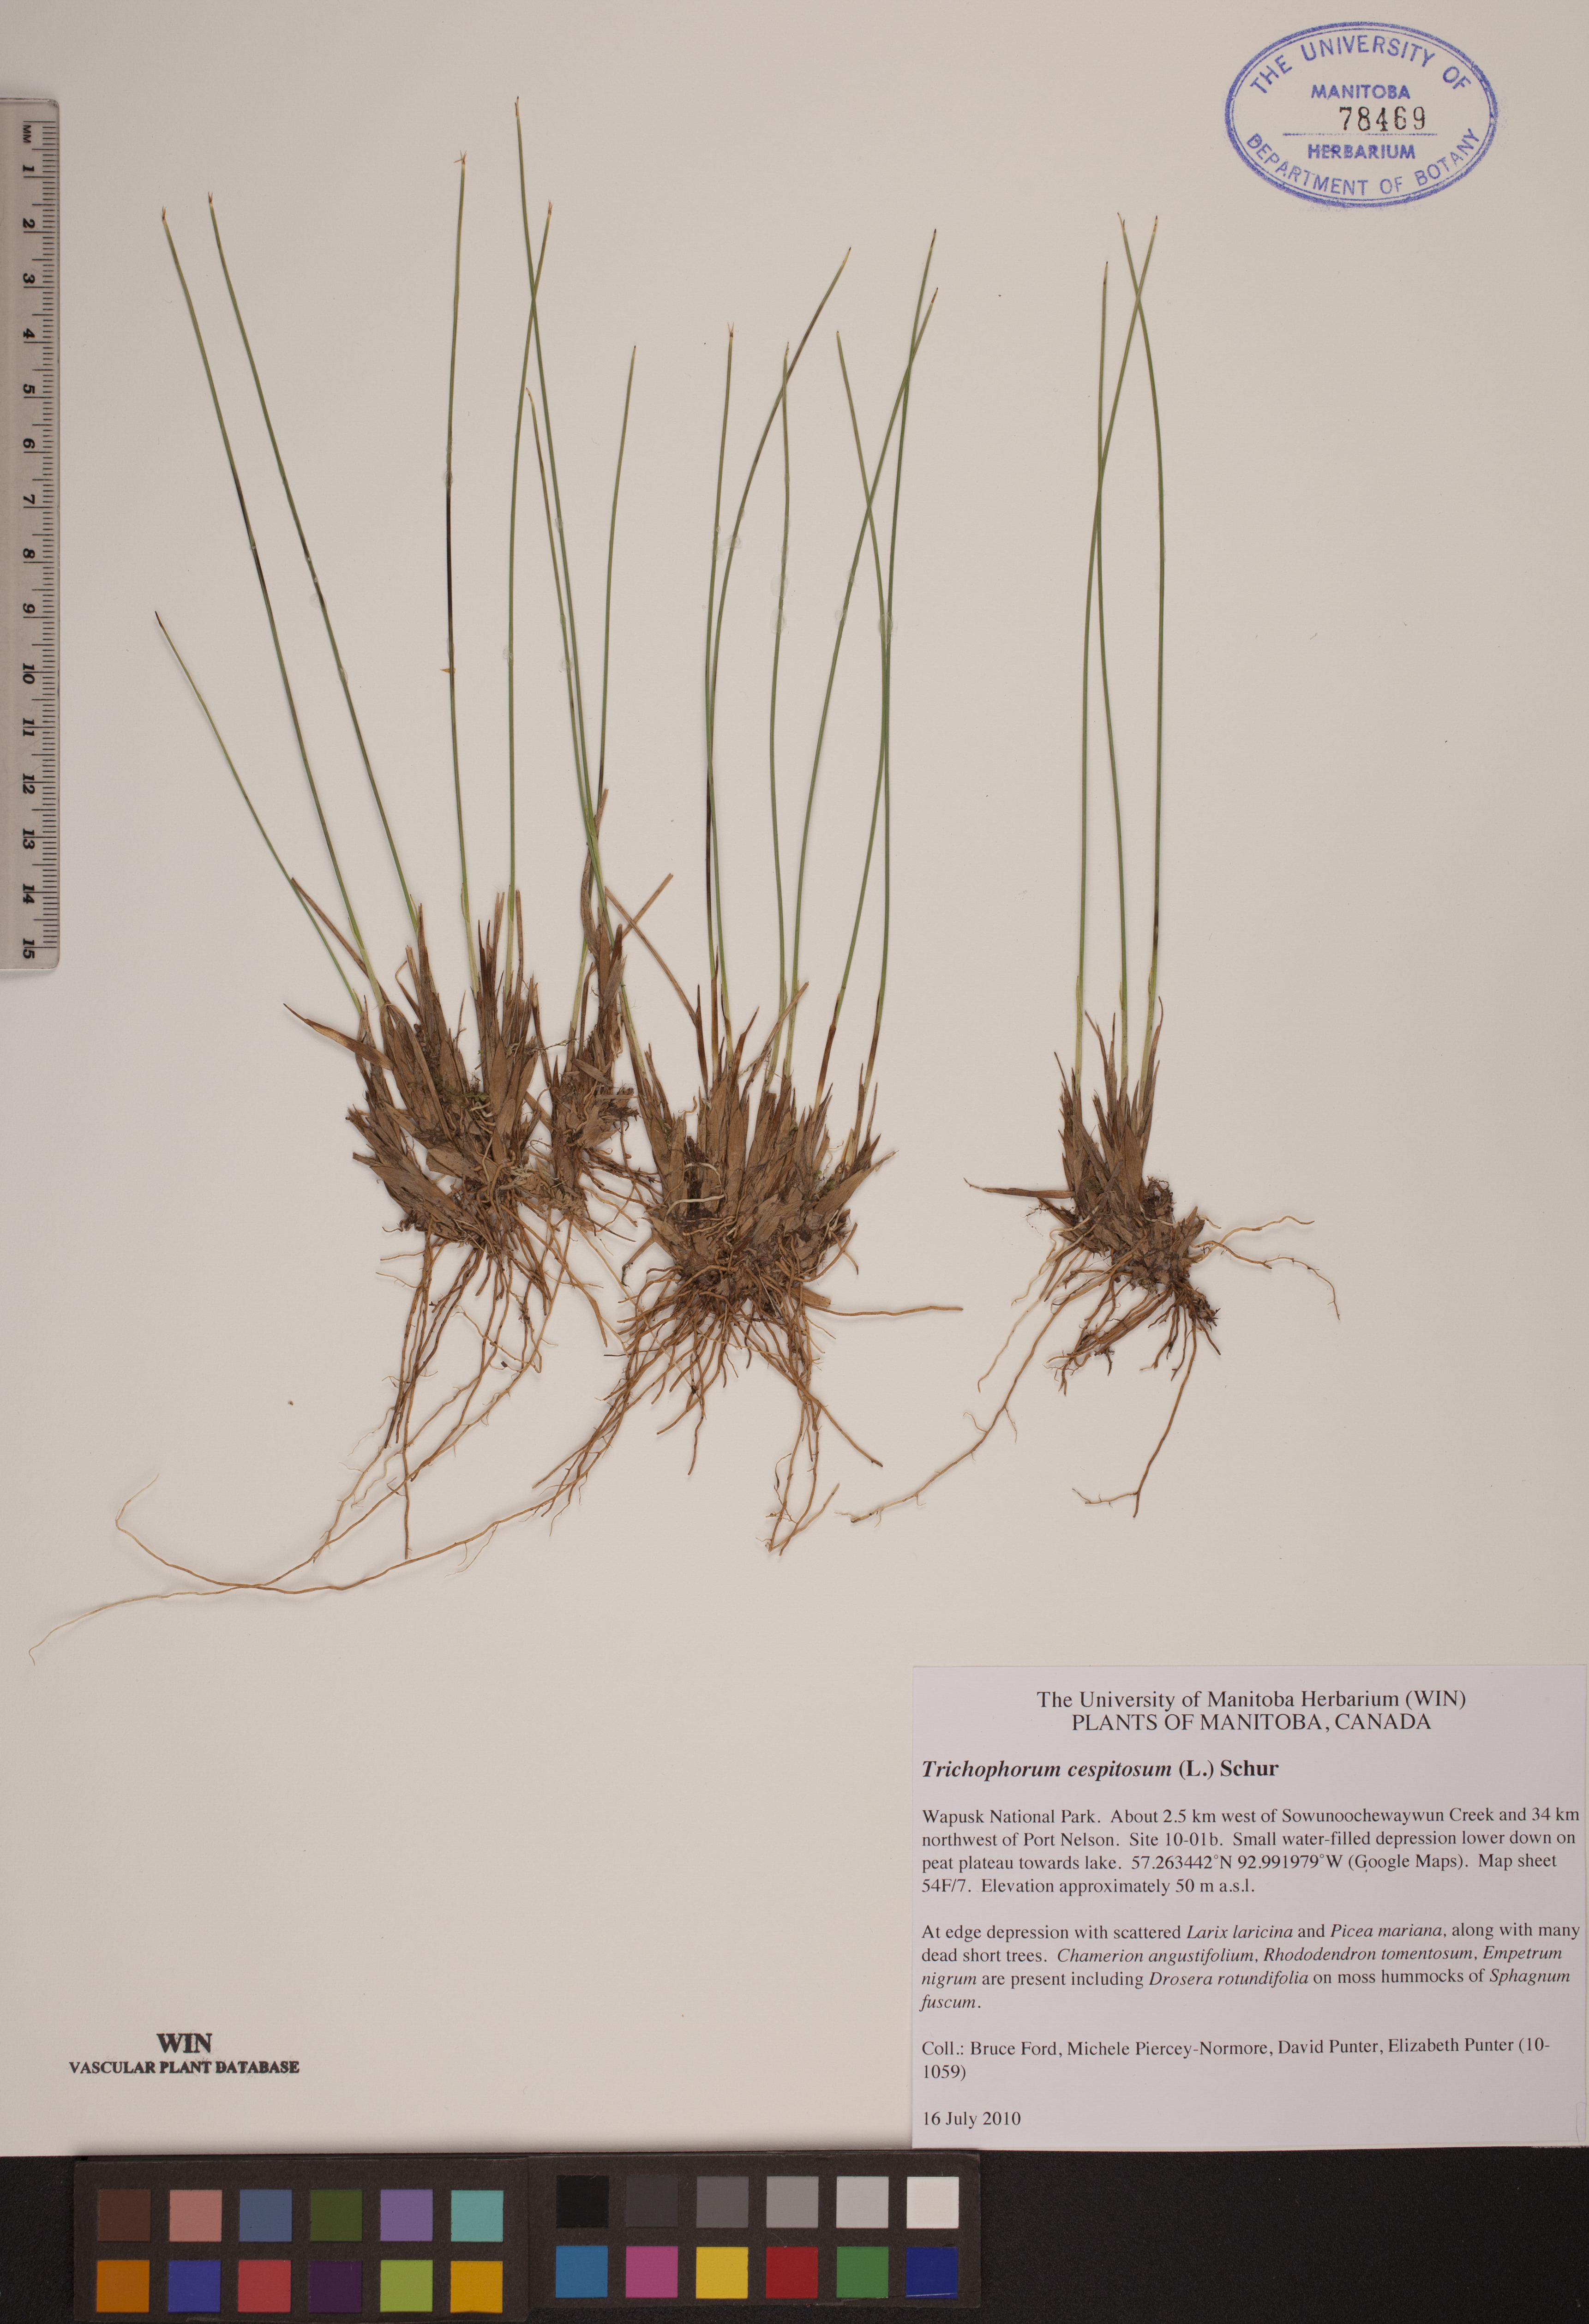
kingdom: Plantae
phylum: Tracheophyta
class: Liliopsida
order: Poales
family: Cyperaceae
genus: Trichophorum
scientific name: Trichophorum cespitosum
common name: Cespitose bulrush
